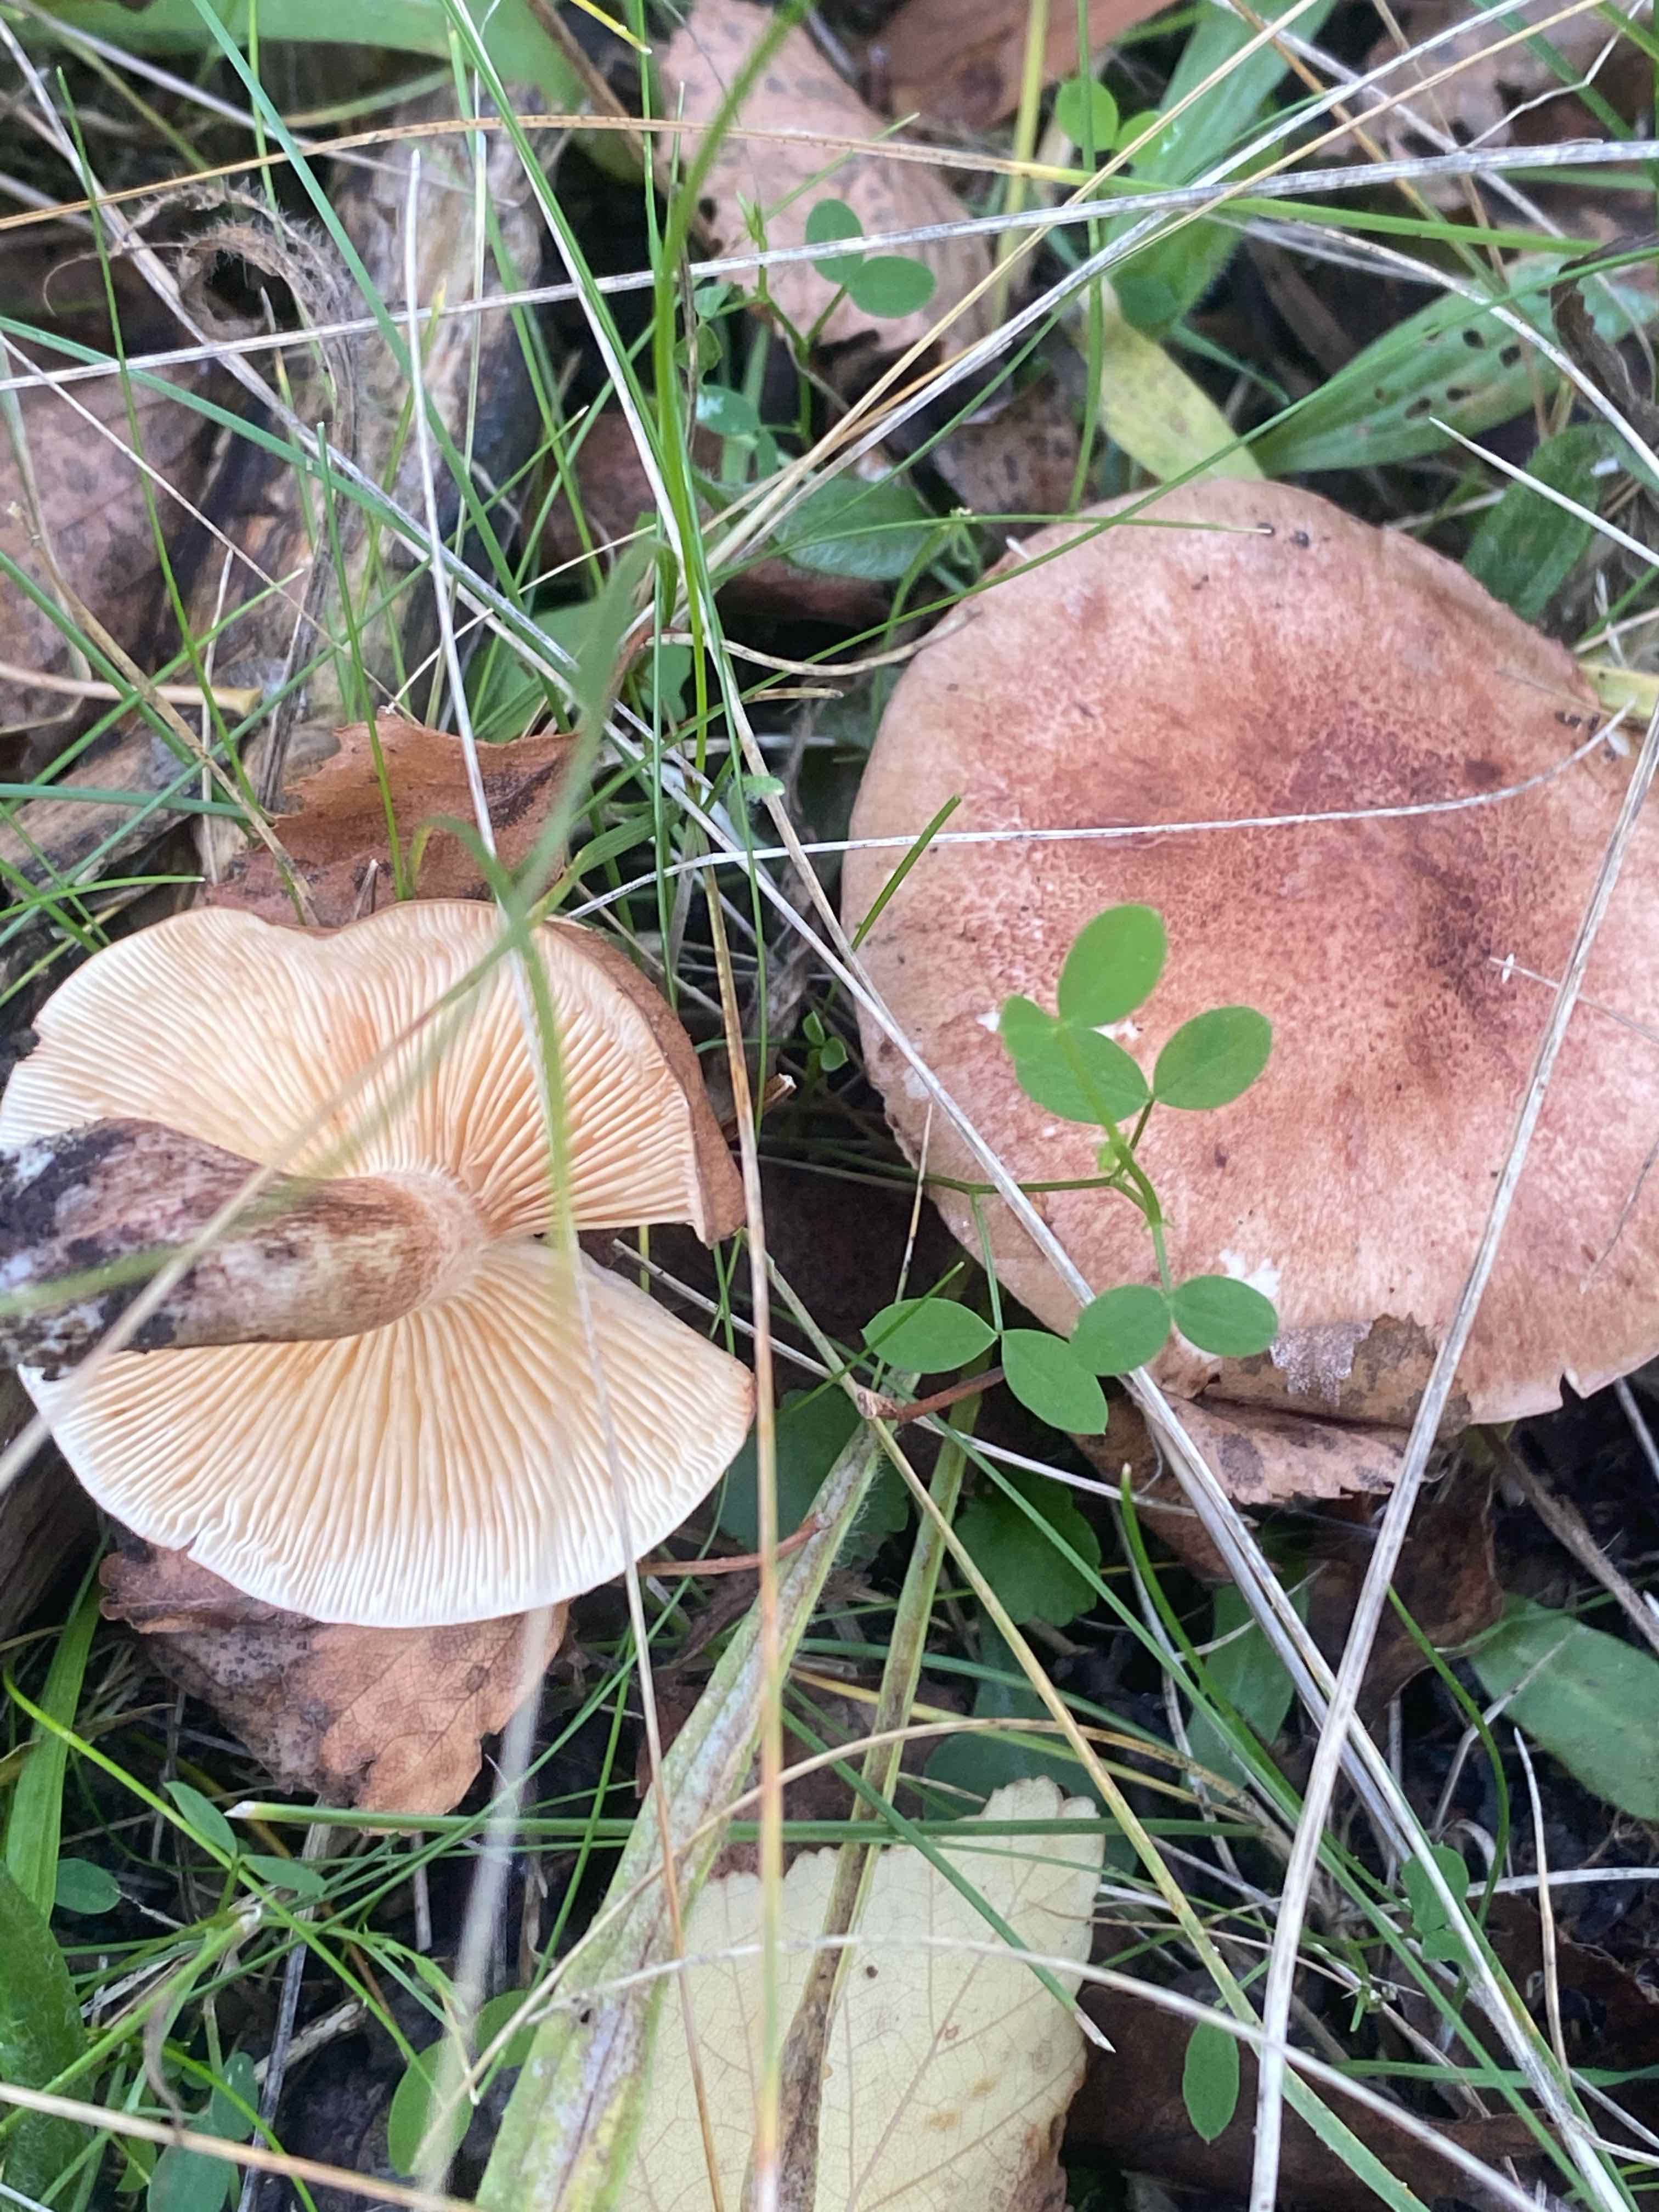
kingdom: Fungi
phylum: Basidiomycota
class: Agaricomycetes
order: Agaricales
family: Tricholomataceae
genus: Tricholoma
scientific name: Tricholoma fulvum
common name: birke-ridderhat
